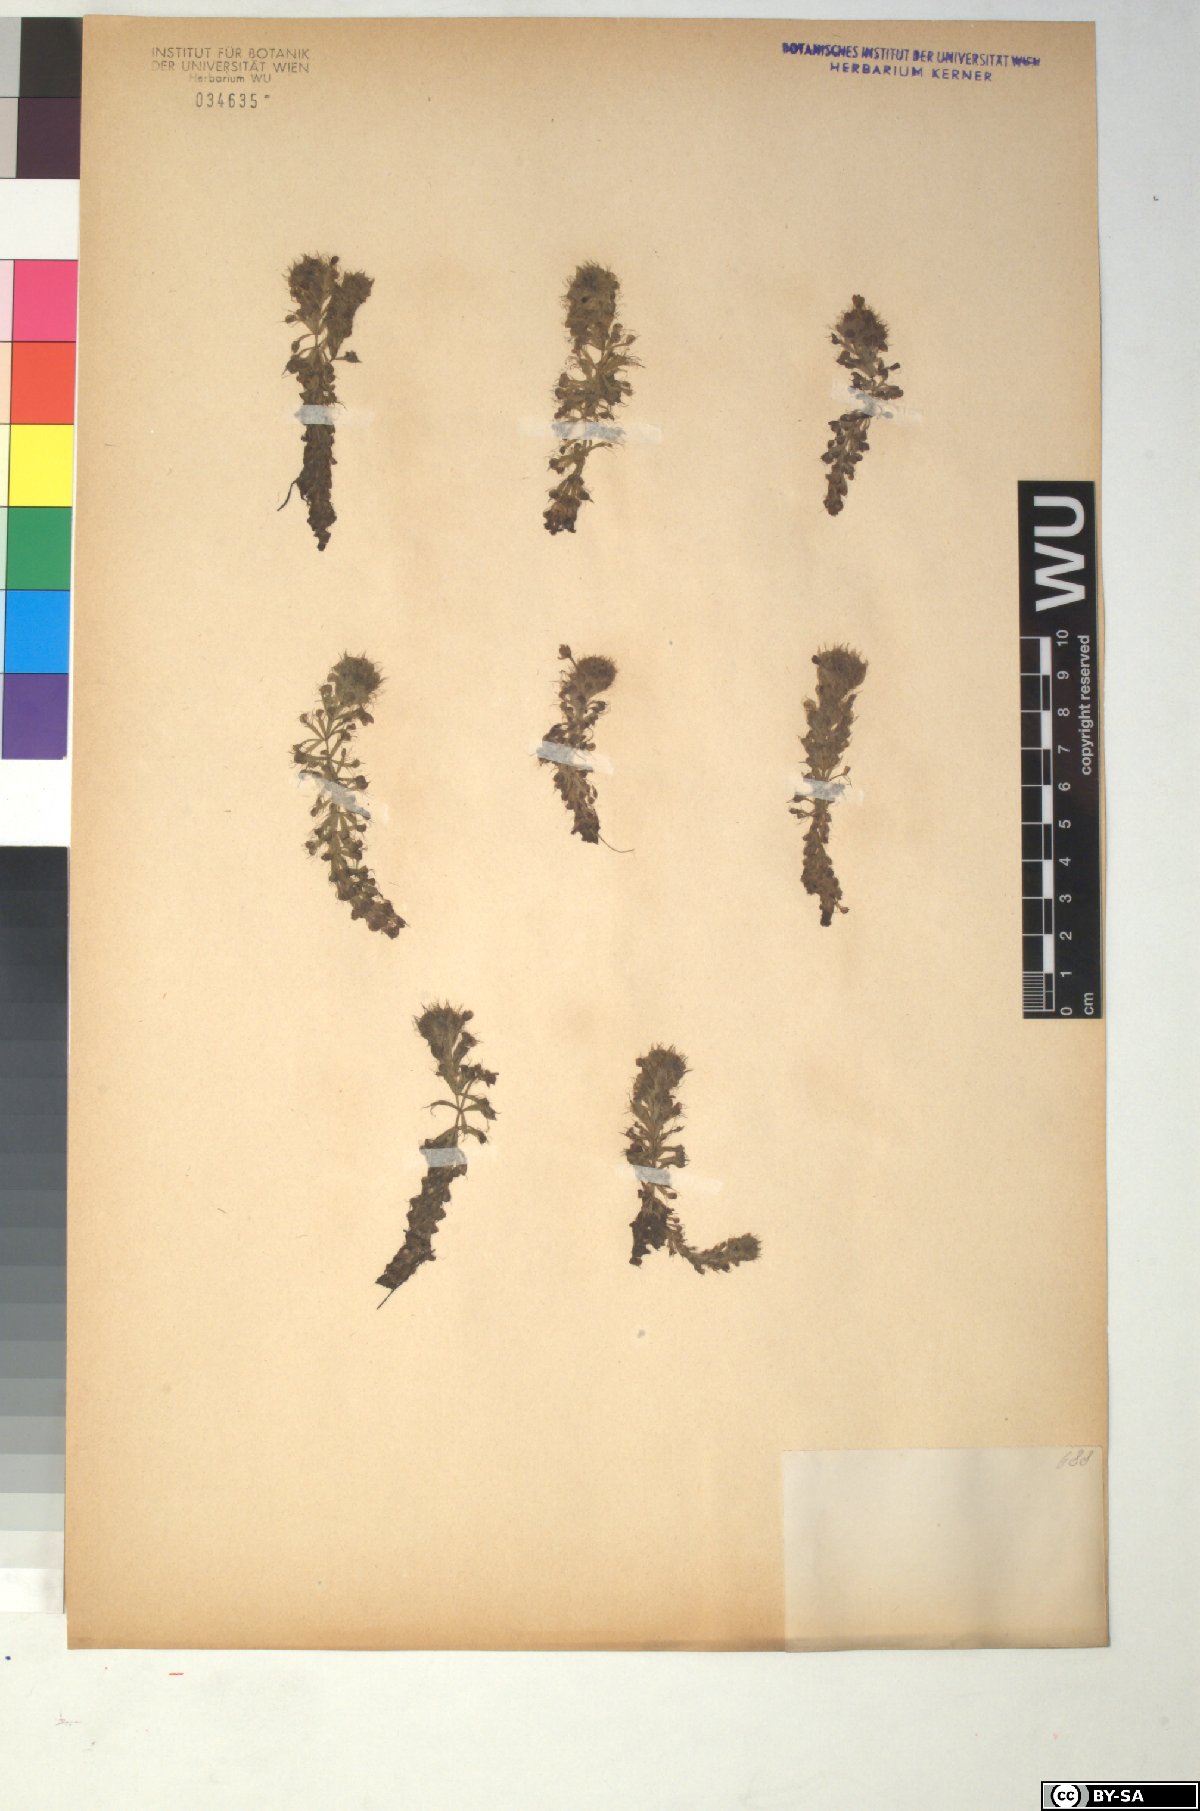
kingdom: Plantae
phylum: Tracheophyta
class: Magnoliopsida
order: Caryophyllales
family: Droseraceae
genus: Aldrovanda
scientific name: Aldrovanda vesiculosa
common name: Waterwheel plant
